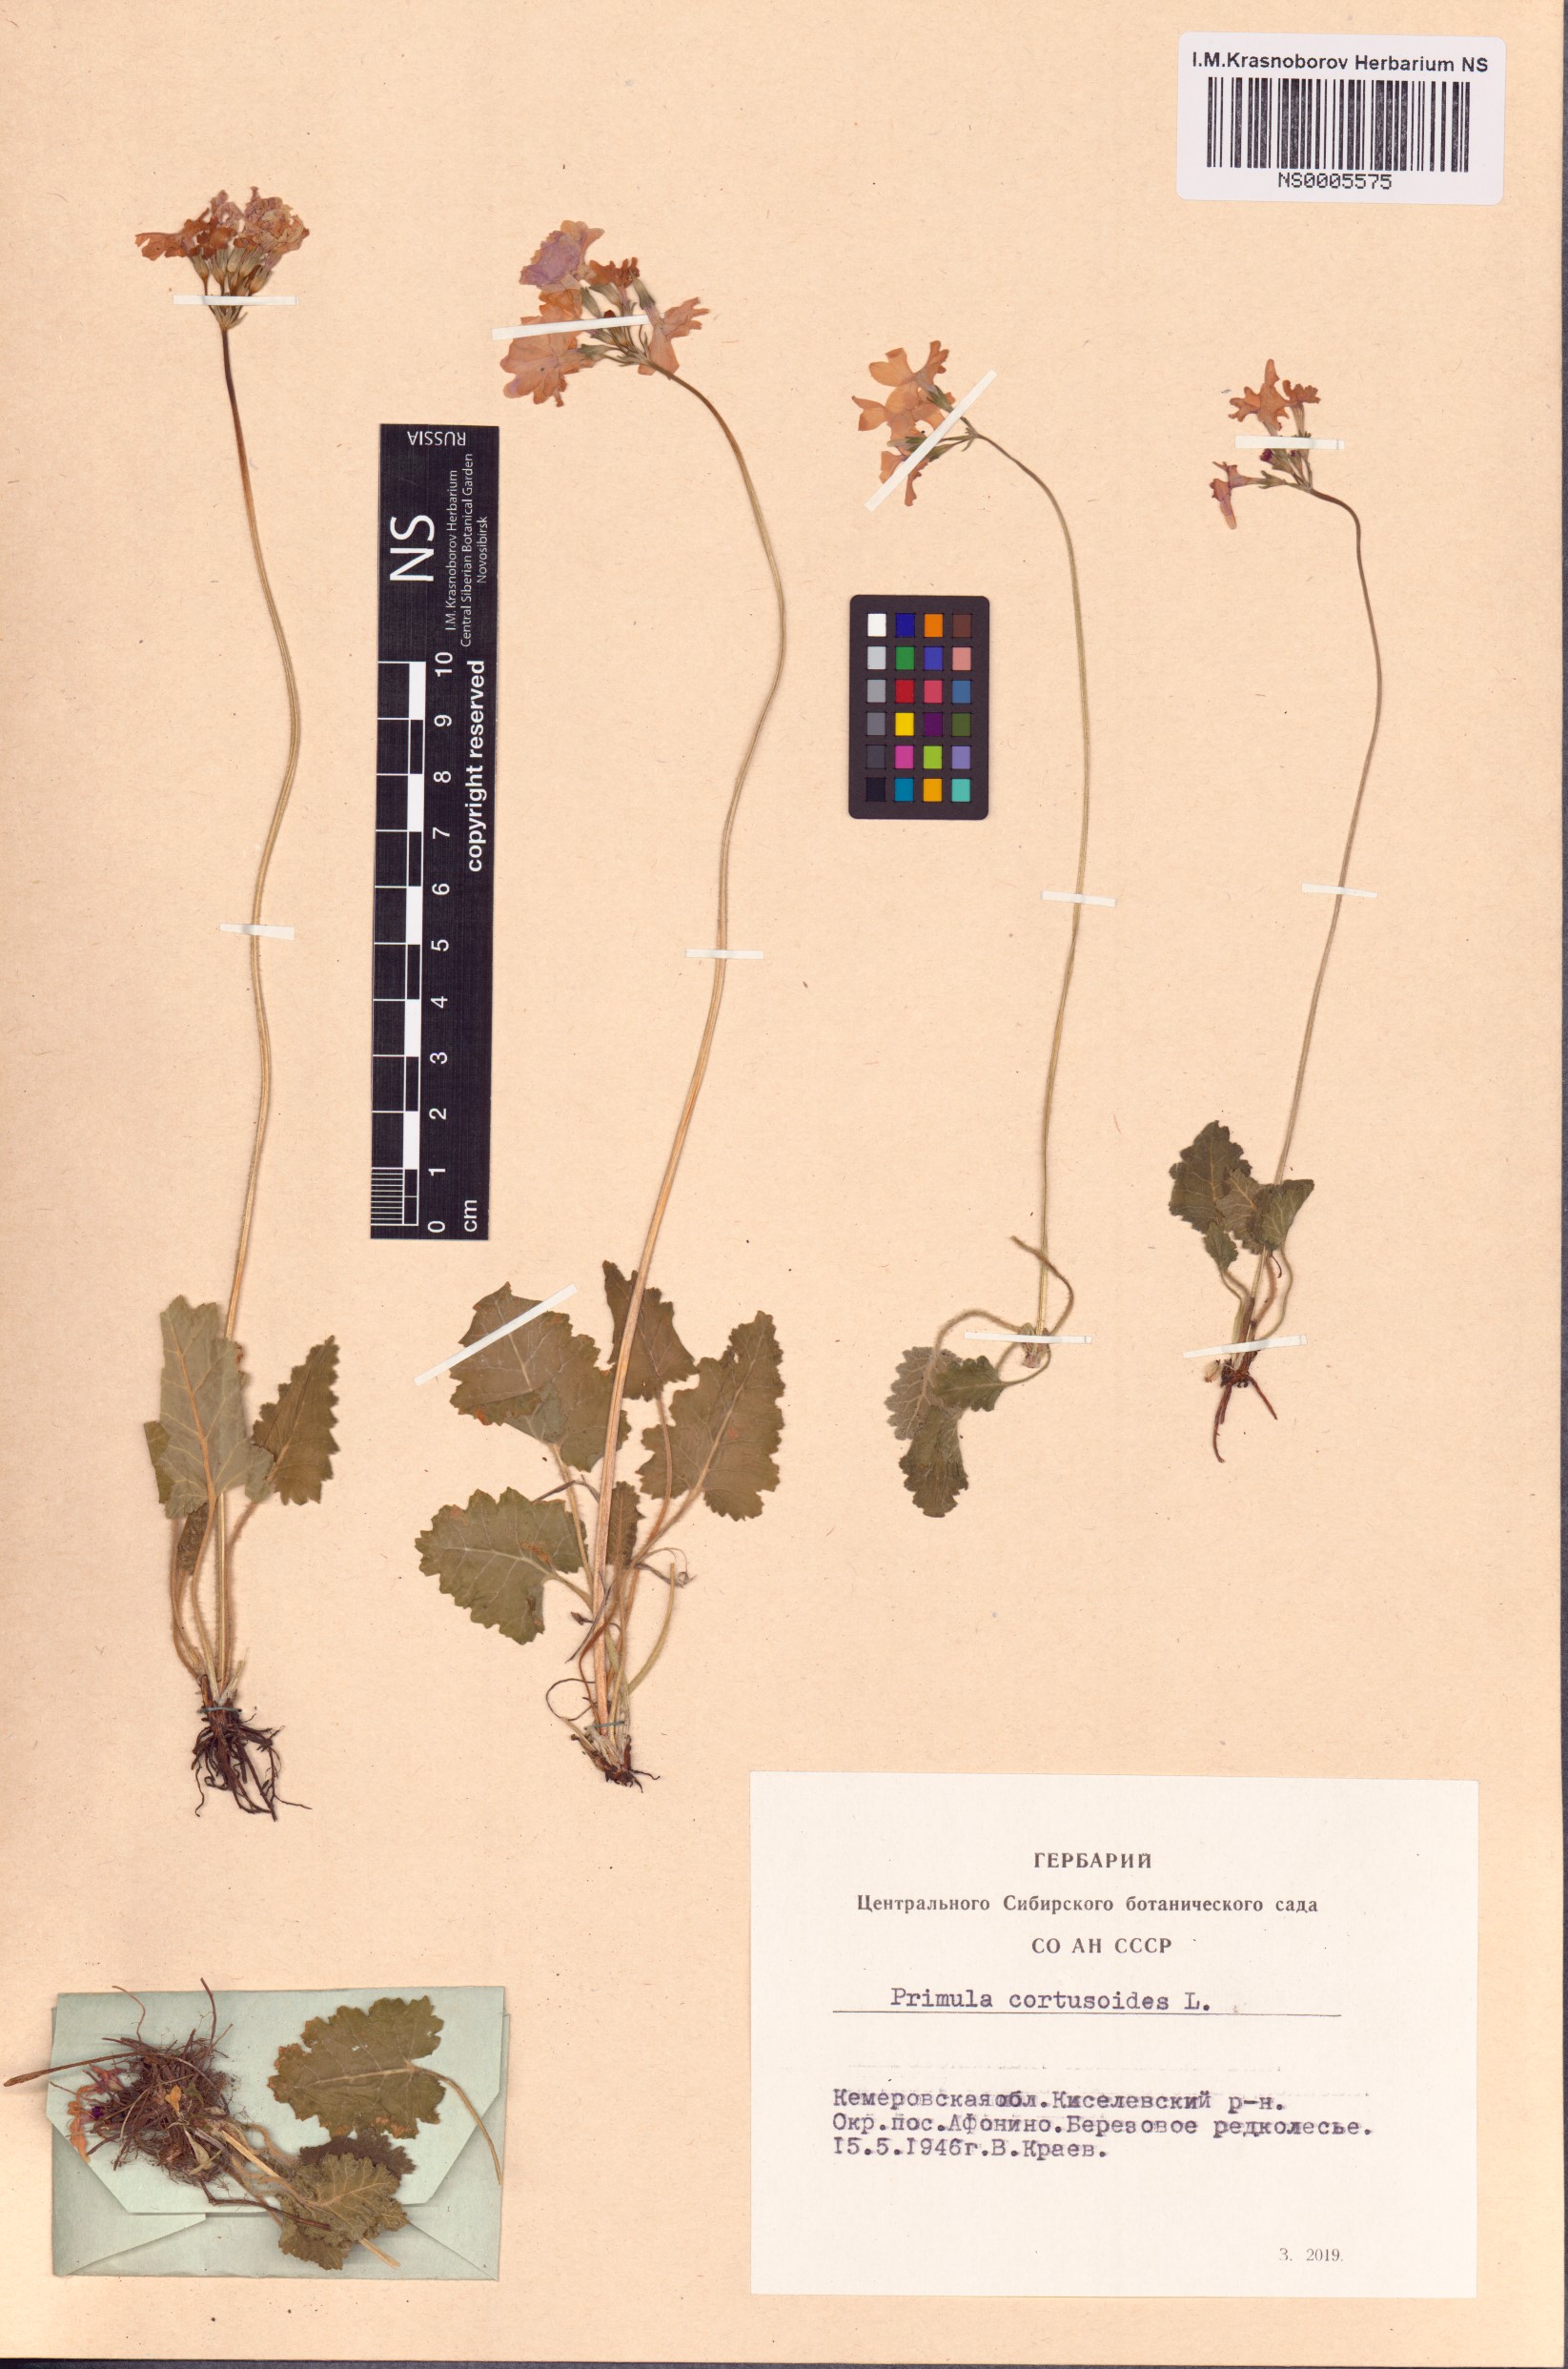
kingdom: Plantae
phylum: Tracheophyta
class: Magnoliopsida
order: Ericales
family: Primulaceae
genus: Primula
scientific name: Primula cortusoides
